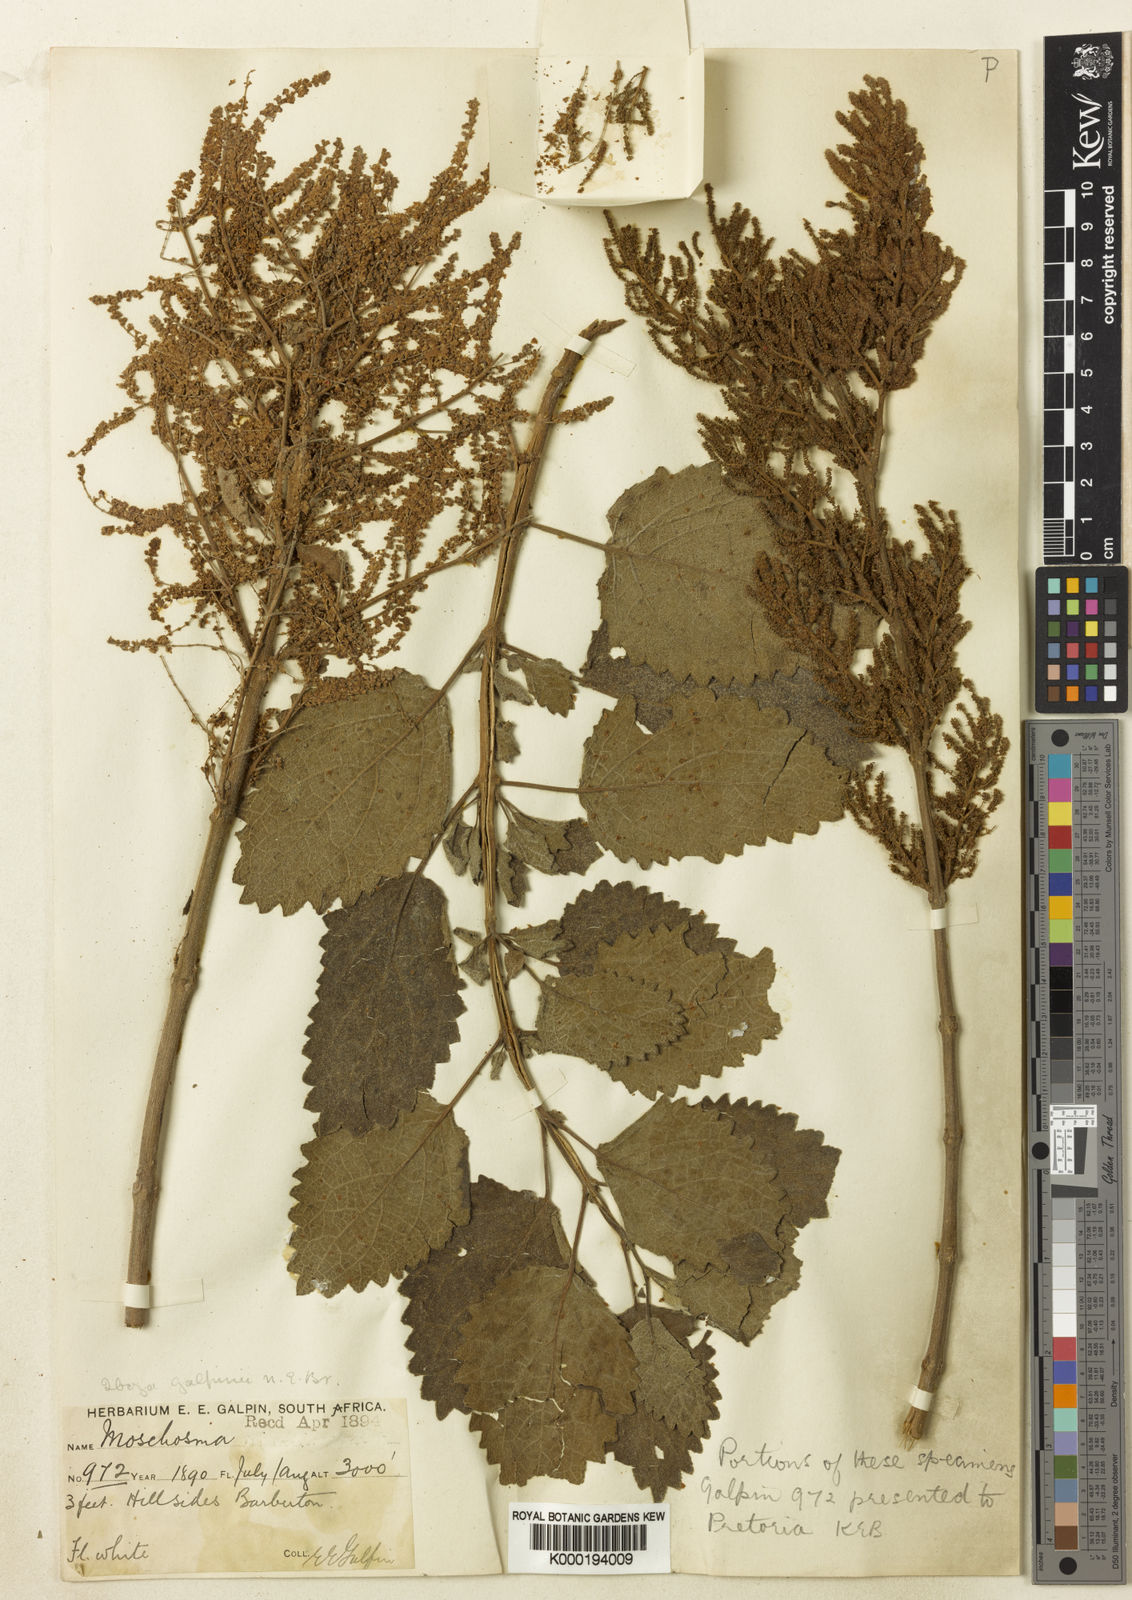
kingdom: Plantae
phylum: Tracheophyta
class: Magnoliopsida
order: Lamiales
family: Lamiaceae
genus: Tetradenia
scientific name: Tetradenia riparia
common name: Gingerbush
